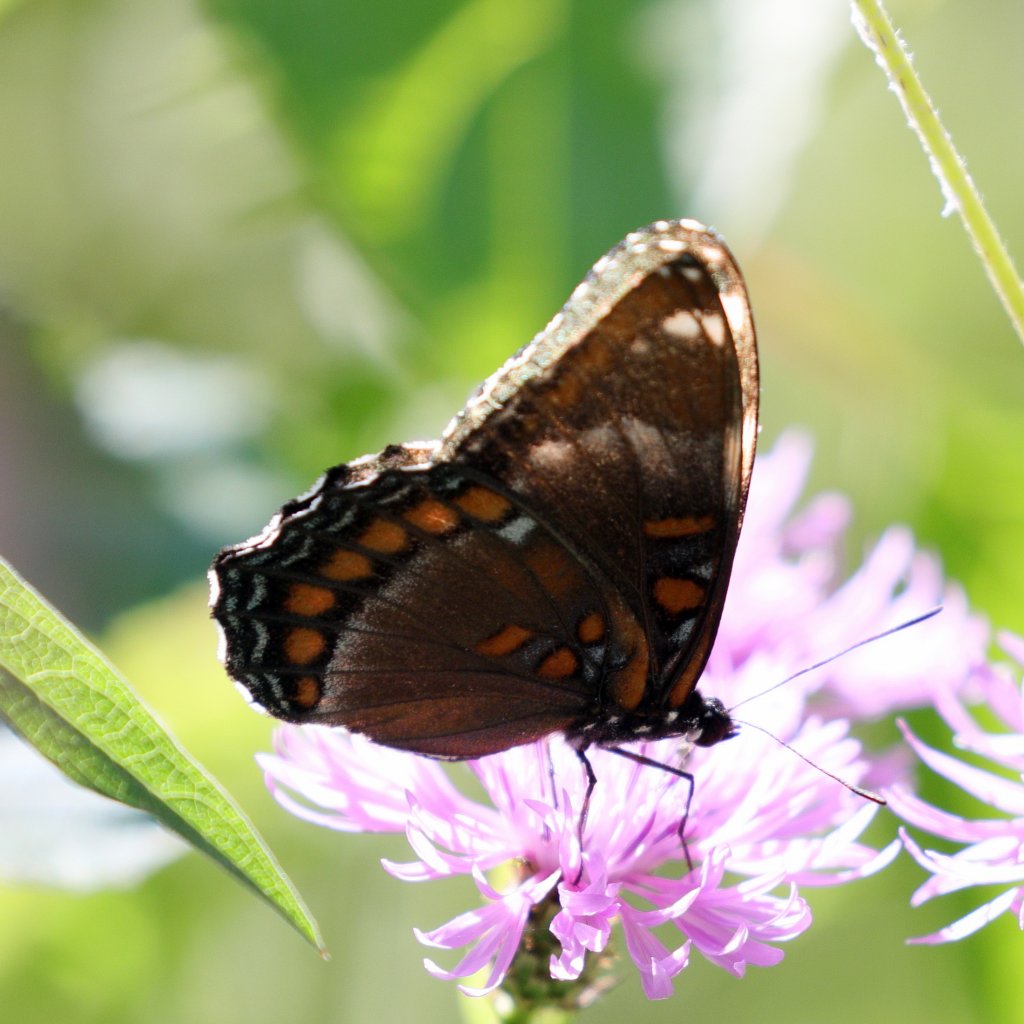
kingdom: Animalia
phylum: Arthropoda
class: Insecta
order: Lepidoptera
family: Nymphalidae
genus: Limenitis
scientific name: Limenitis
